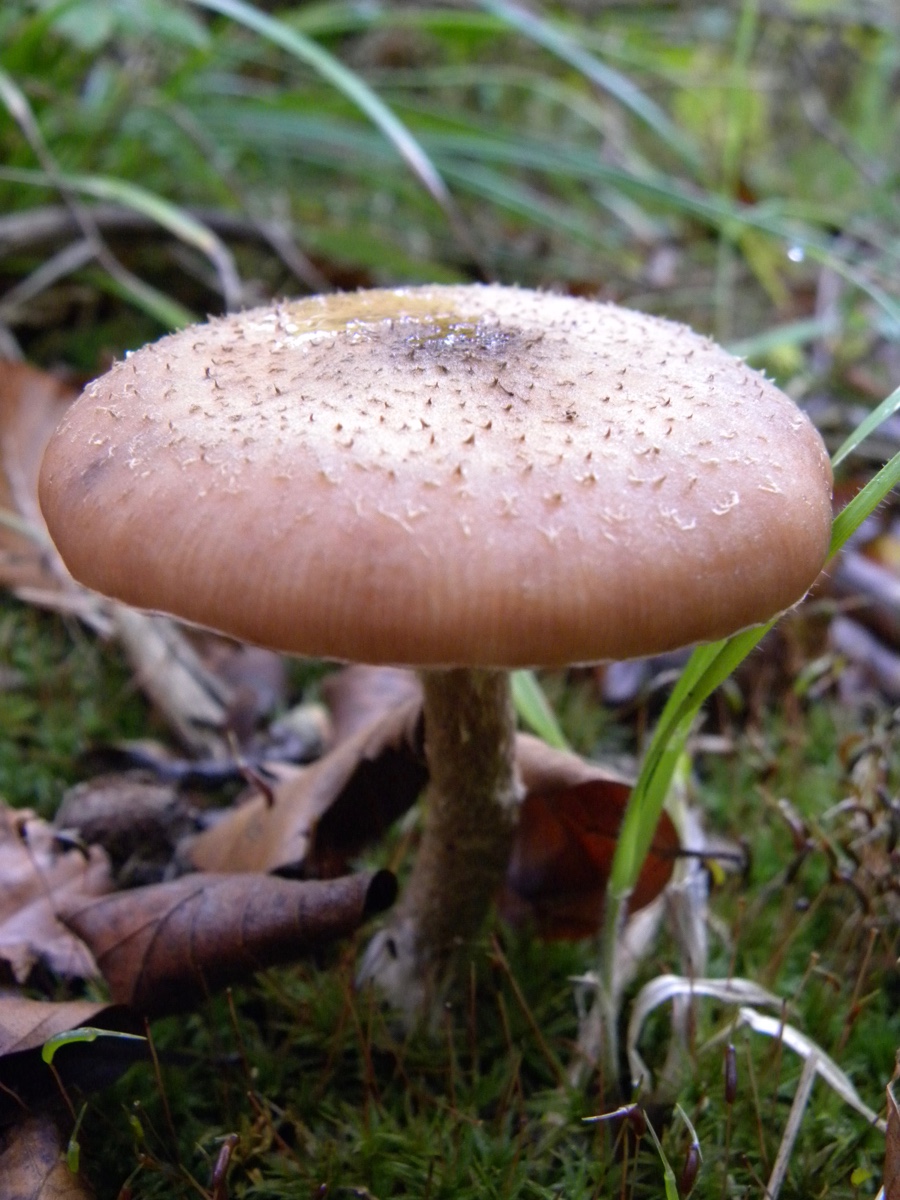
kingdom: Fungi
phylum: Basidiomycota
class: Agaricomycetes
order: Agaricales
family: Physalacriaceae
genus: Armillaria
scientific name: Armillaria
